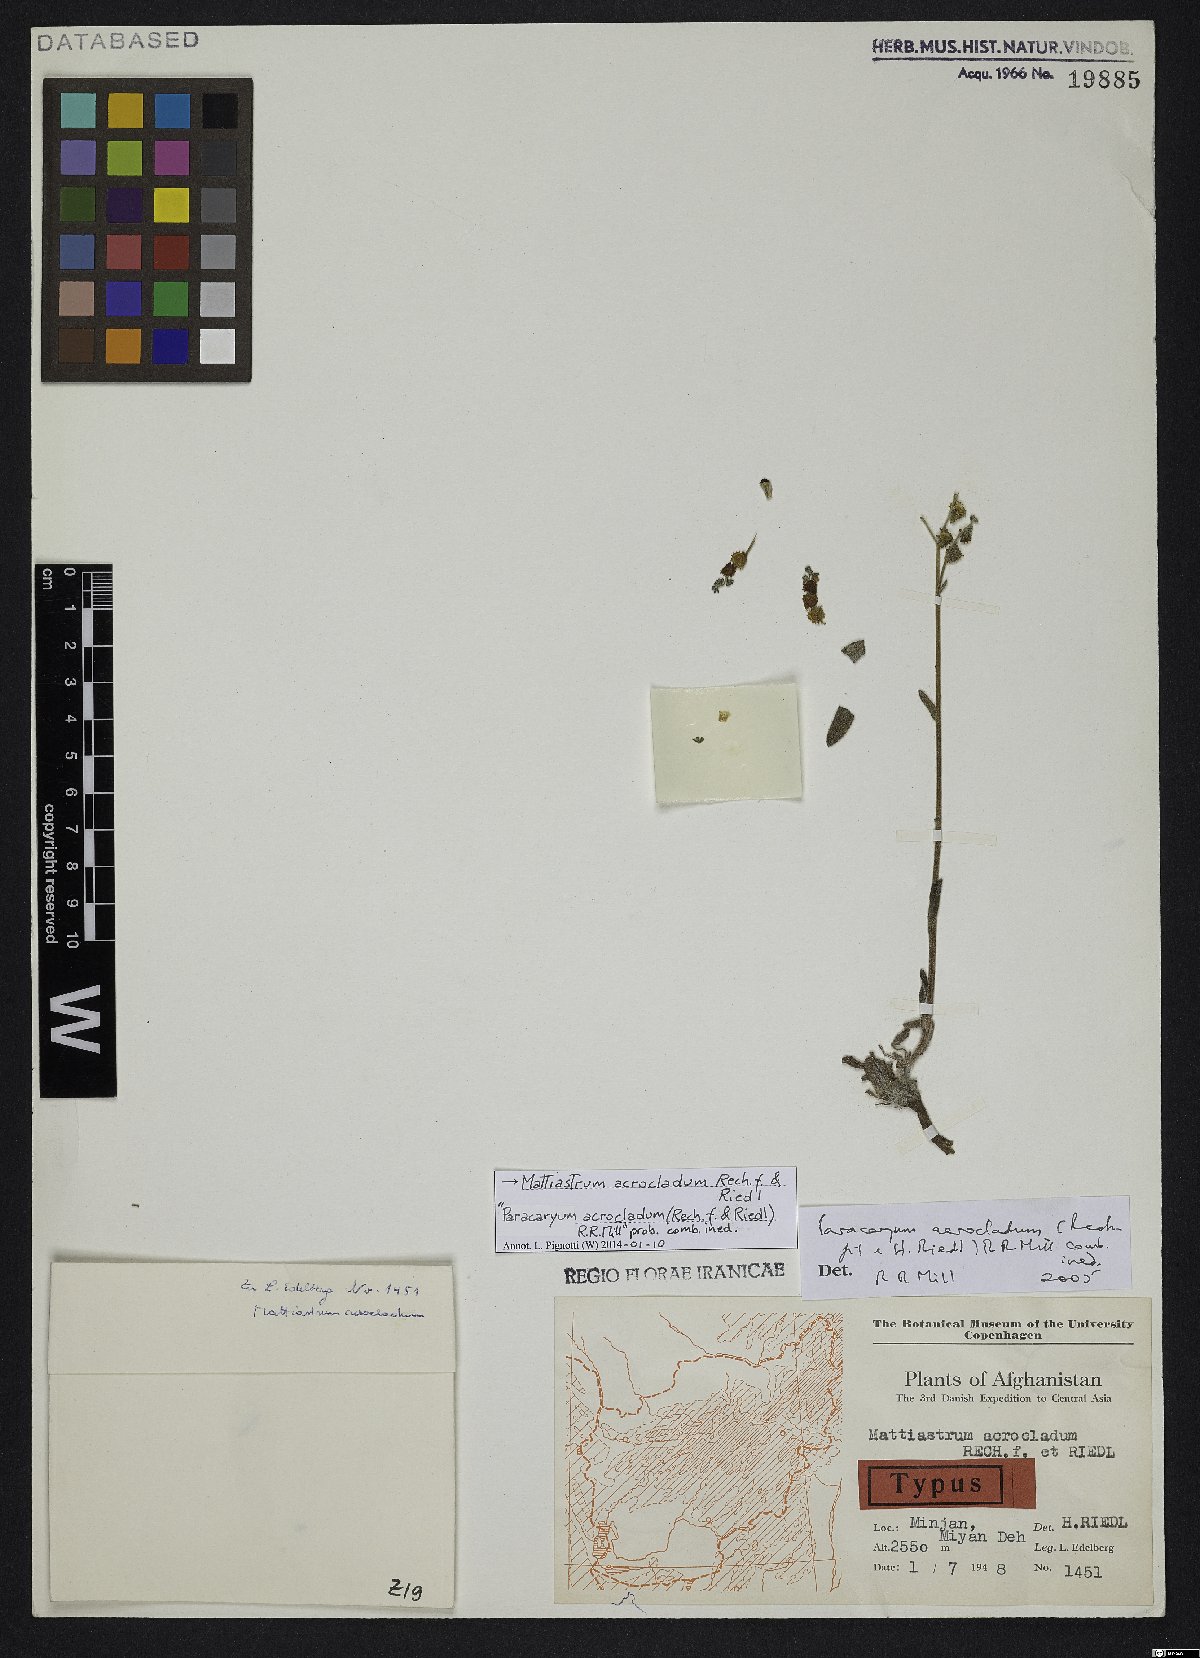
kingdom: Plantae
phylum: Tracheophyta
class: Magnoliopsida
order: Boraginales
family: Boraginaceae
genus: Paracaryum
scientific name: Paracaryum himalayense
